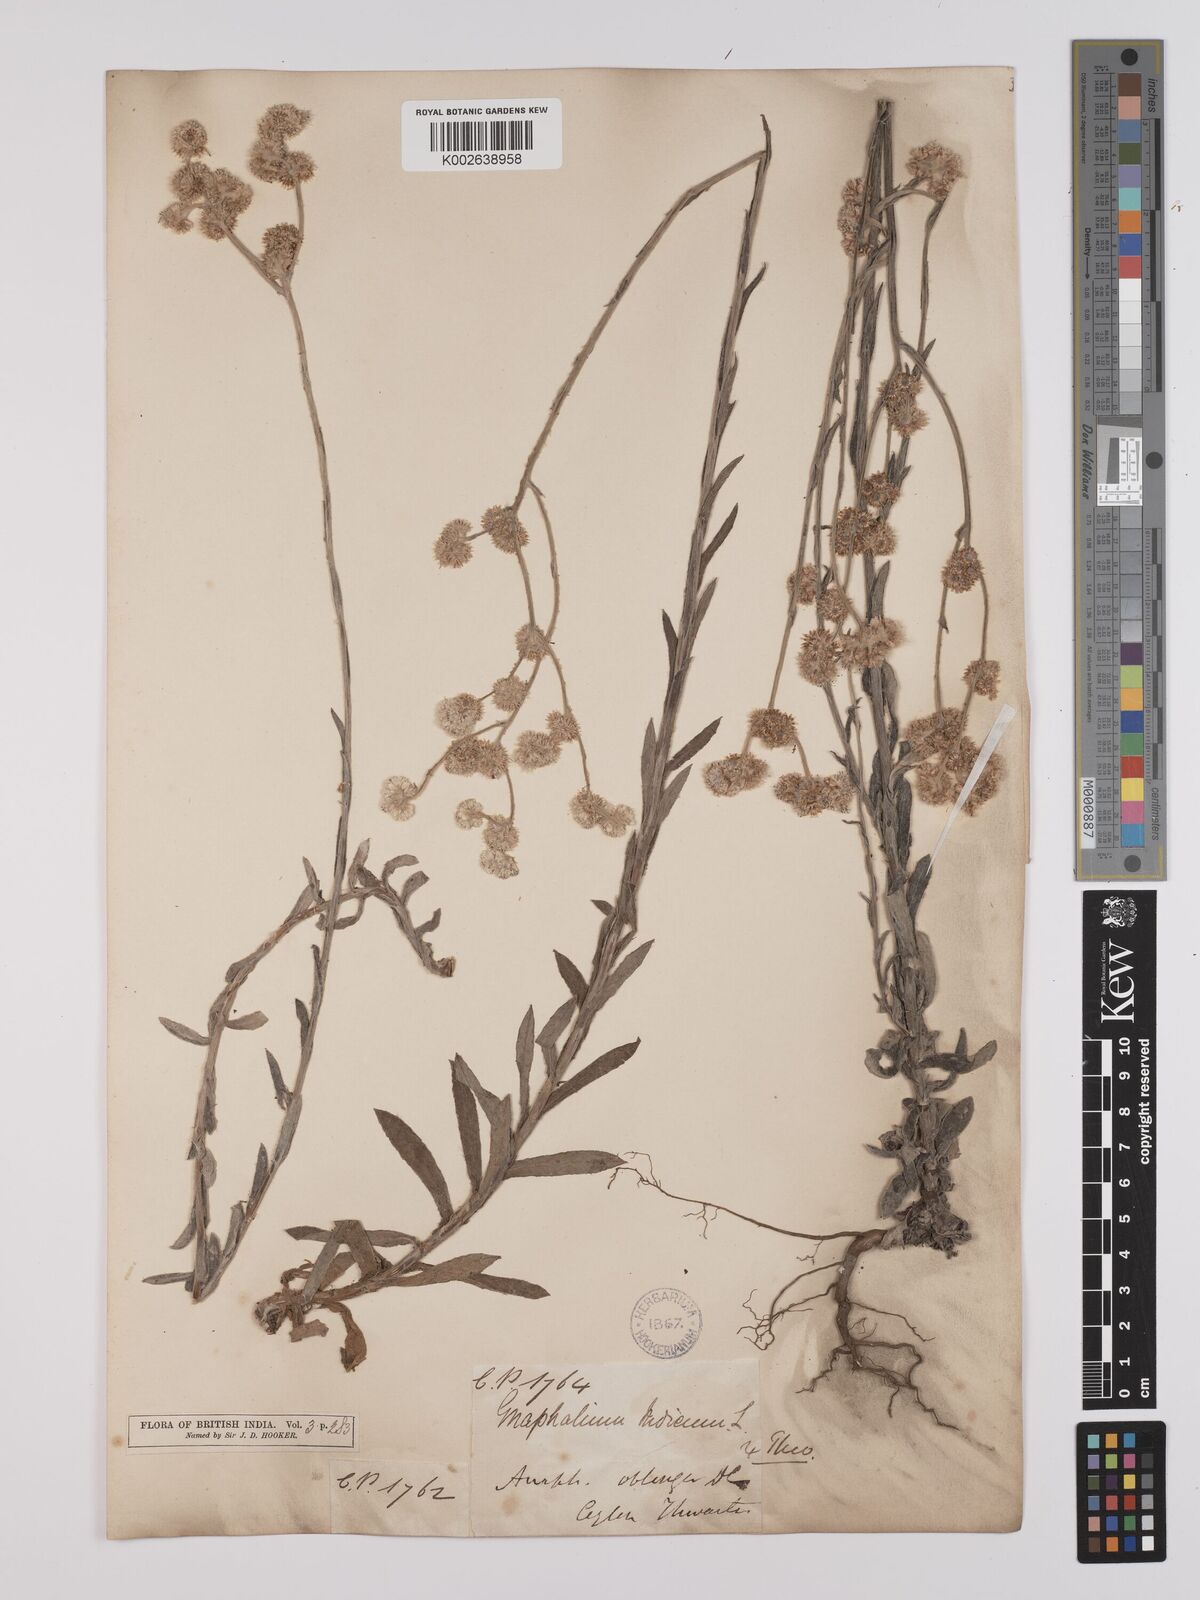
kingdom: Plantae
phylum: Tracheophyta
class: Magnoliopsida
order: Asterales
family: Asteraceae
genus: Anaphalis
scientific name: Anaphalis subdecurrens
